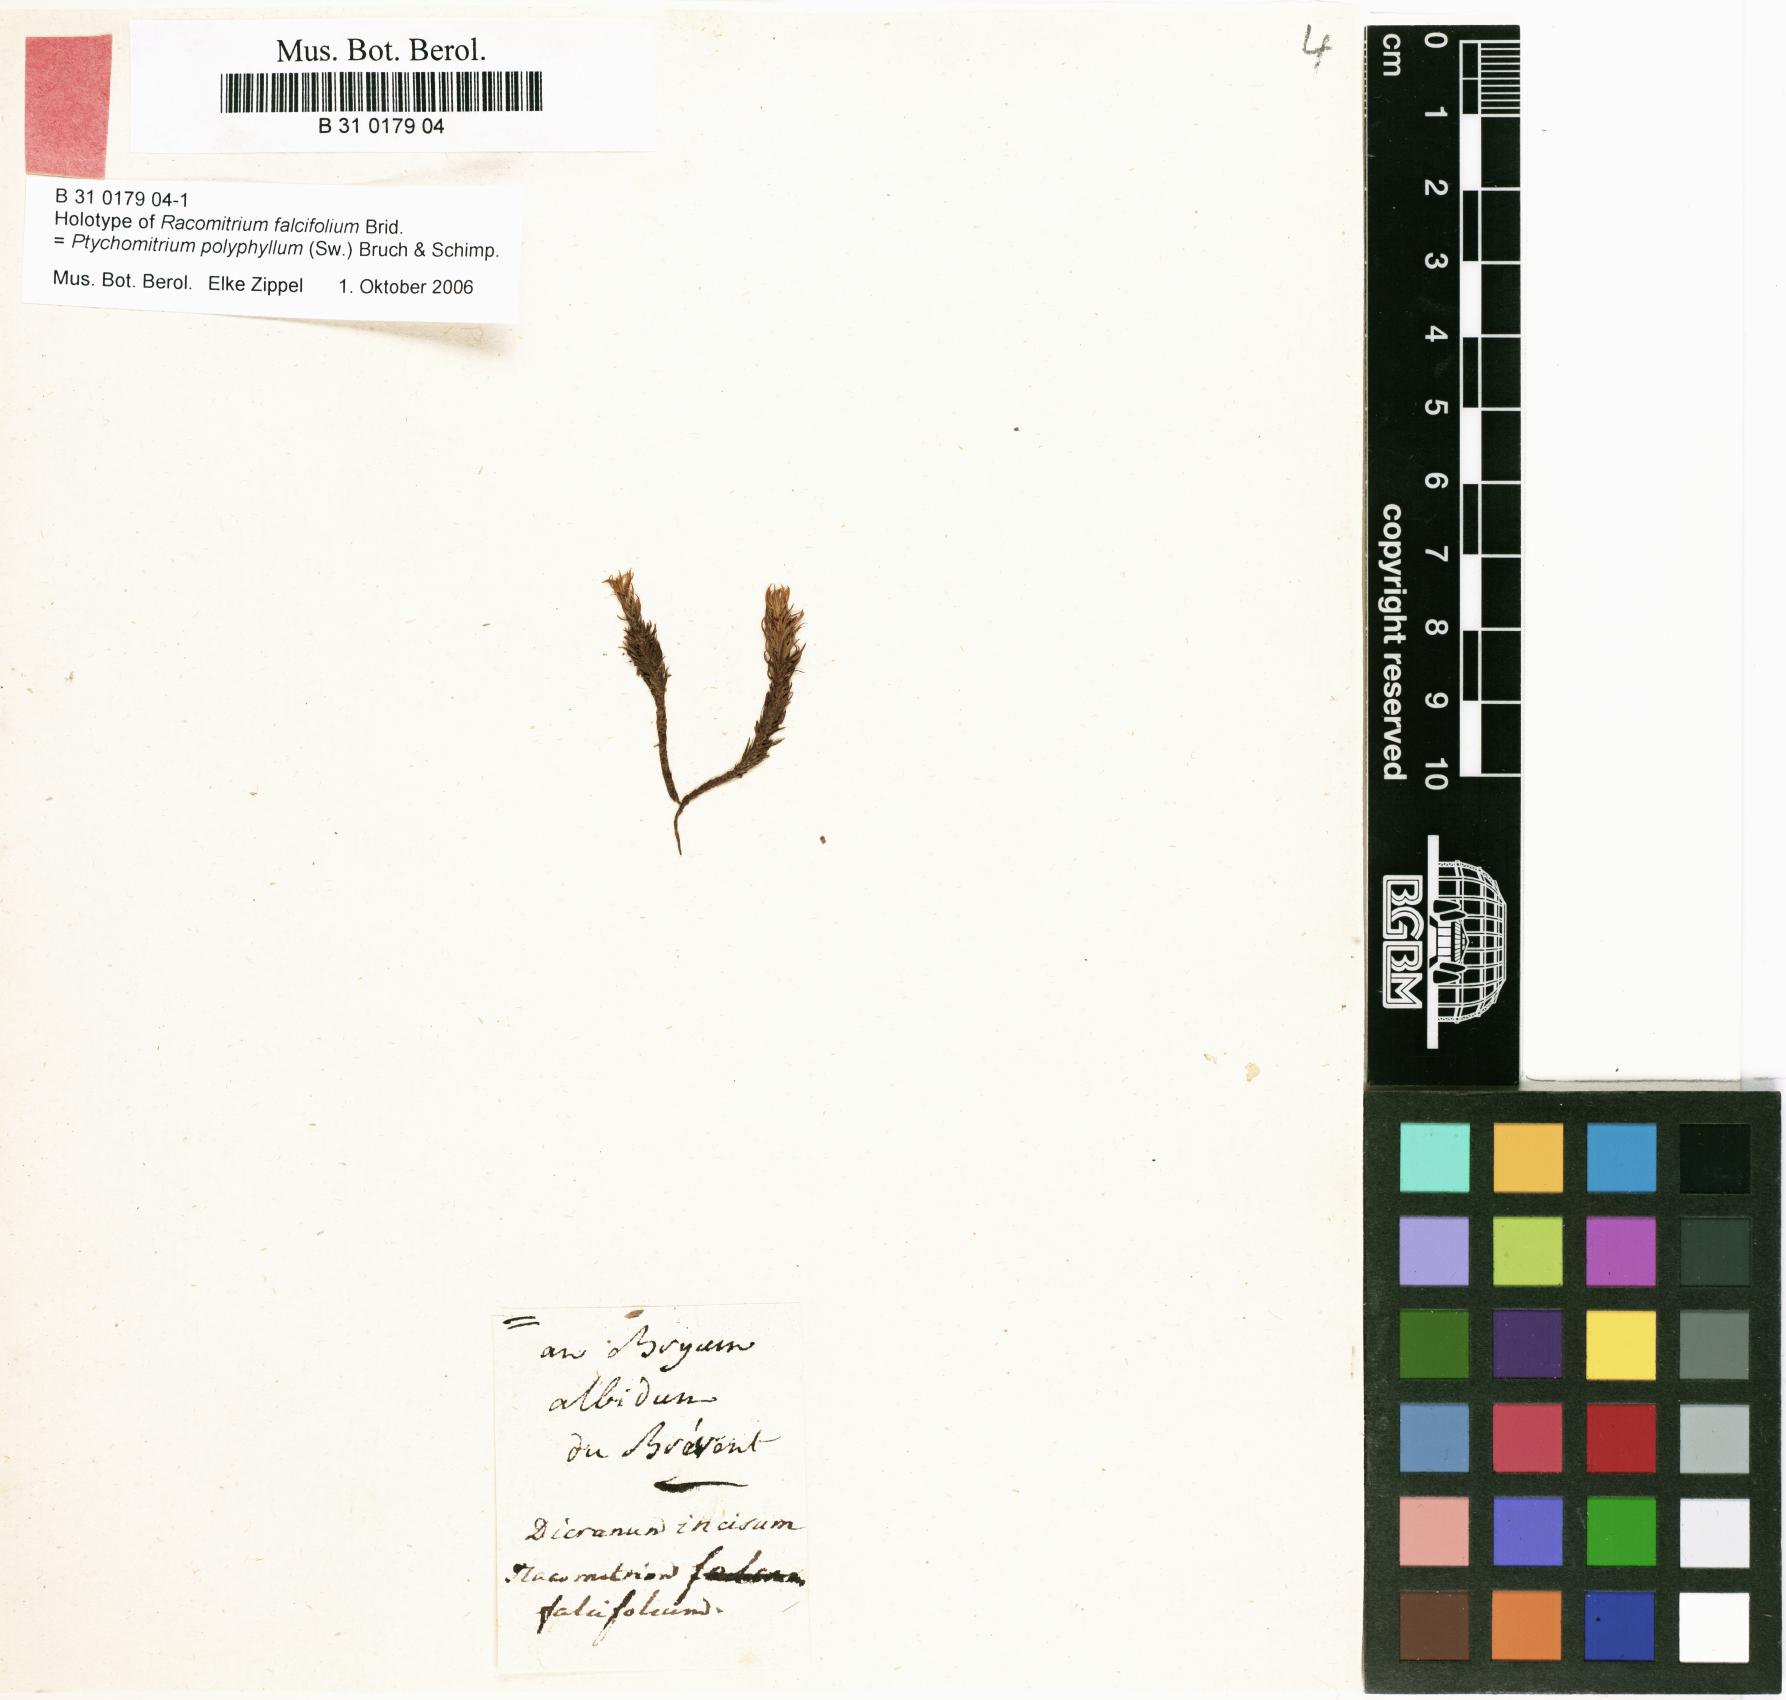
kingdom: Plantae
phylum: Bryophyta
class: Bryopsida
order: Grimmiales
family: Ptychomitriaceae
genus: Ptychomitrium
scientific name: Ptychomitrium polyphyllum
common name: Greater pincushion
